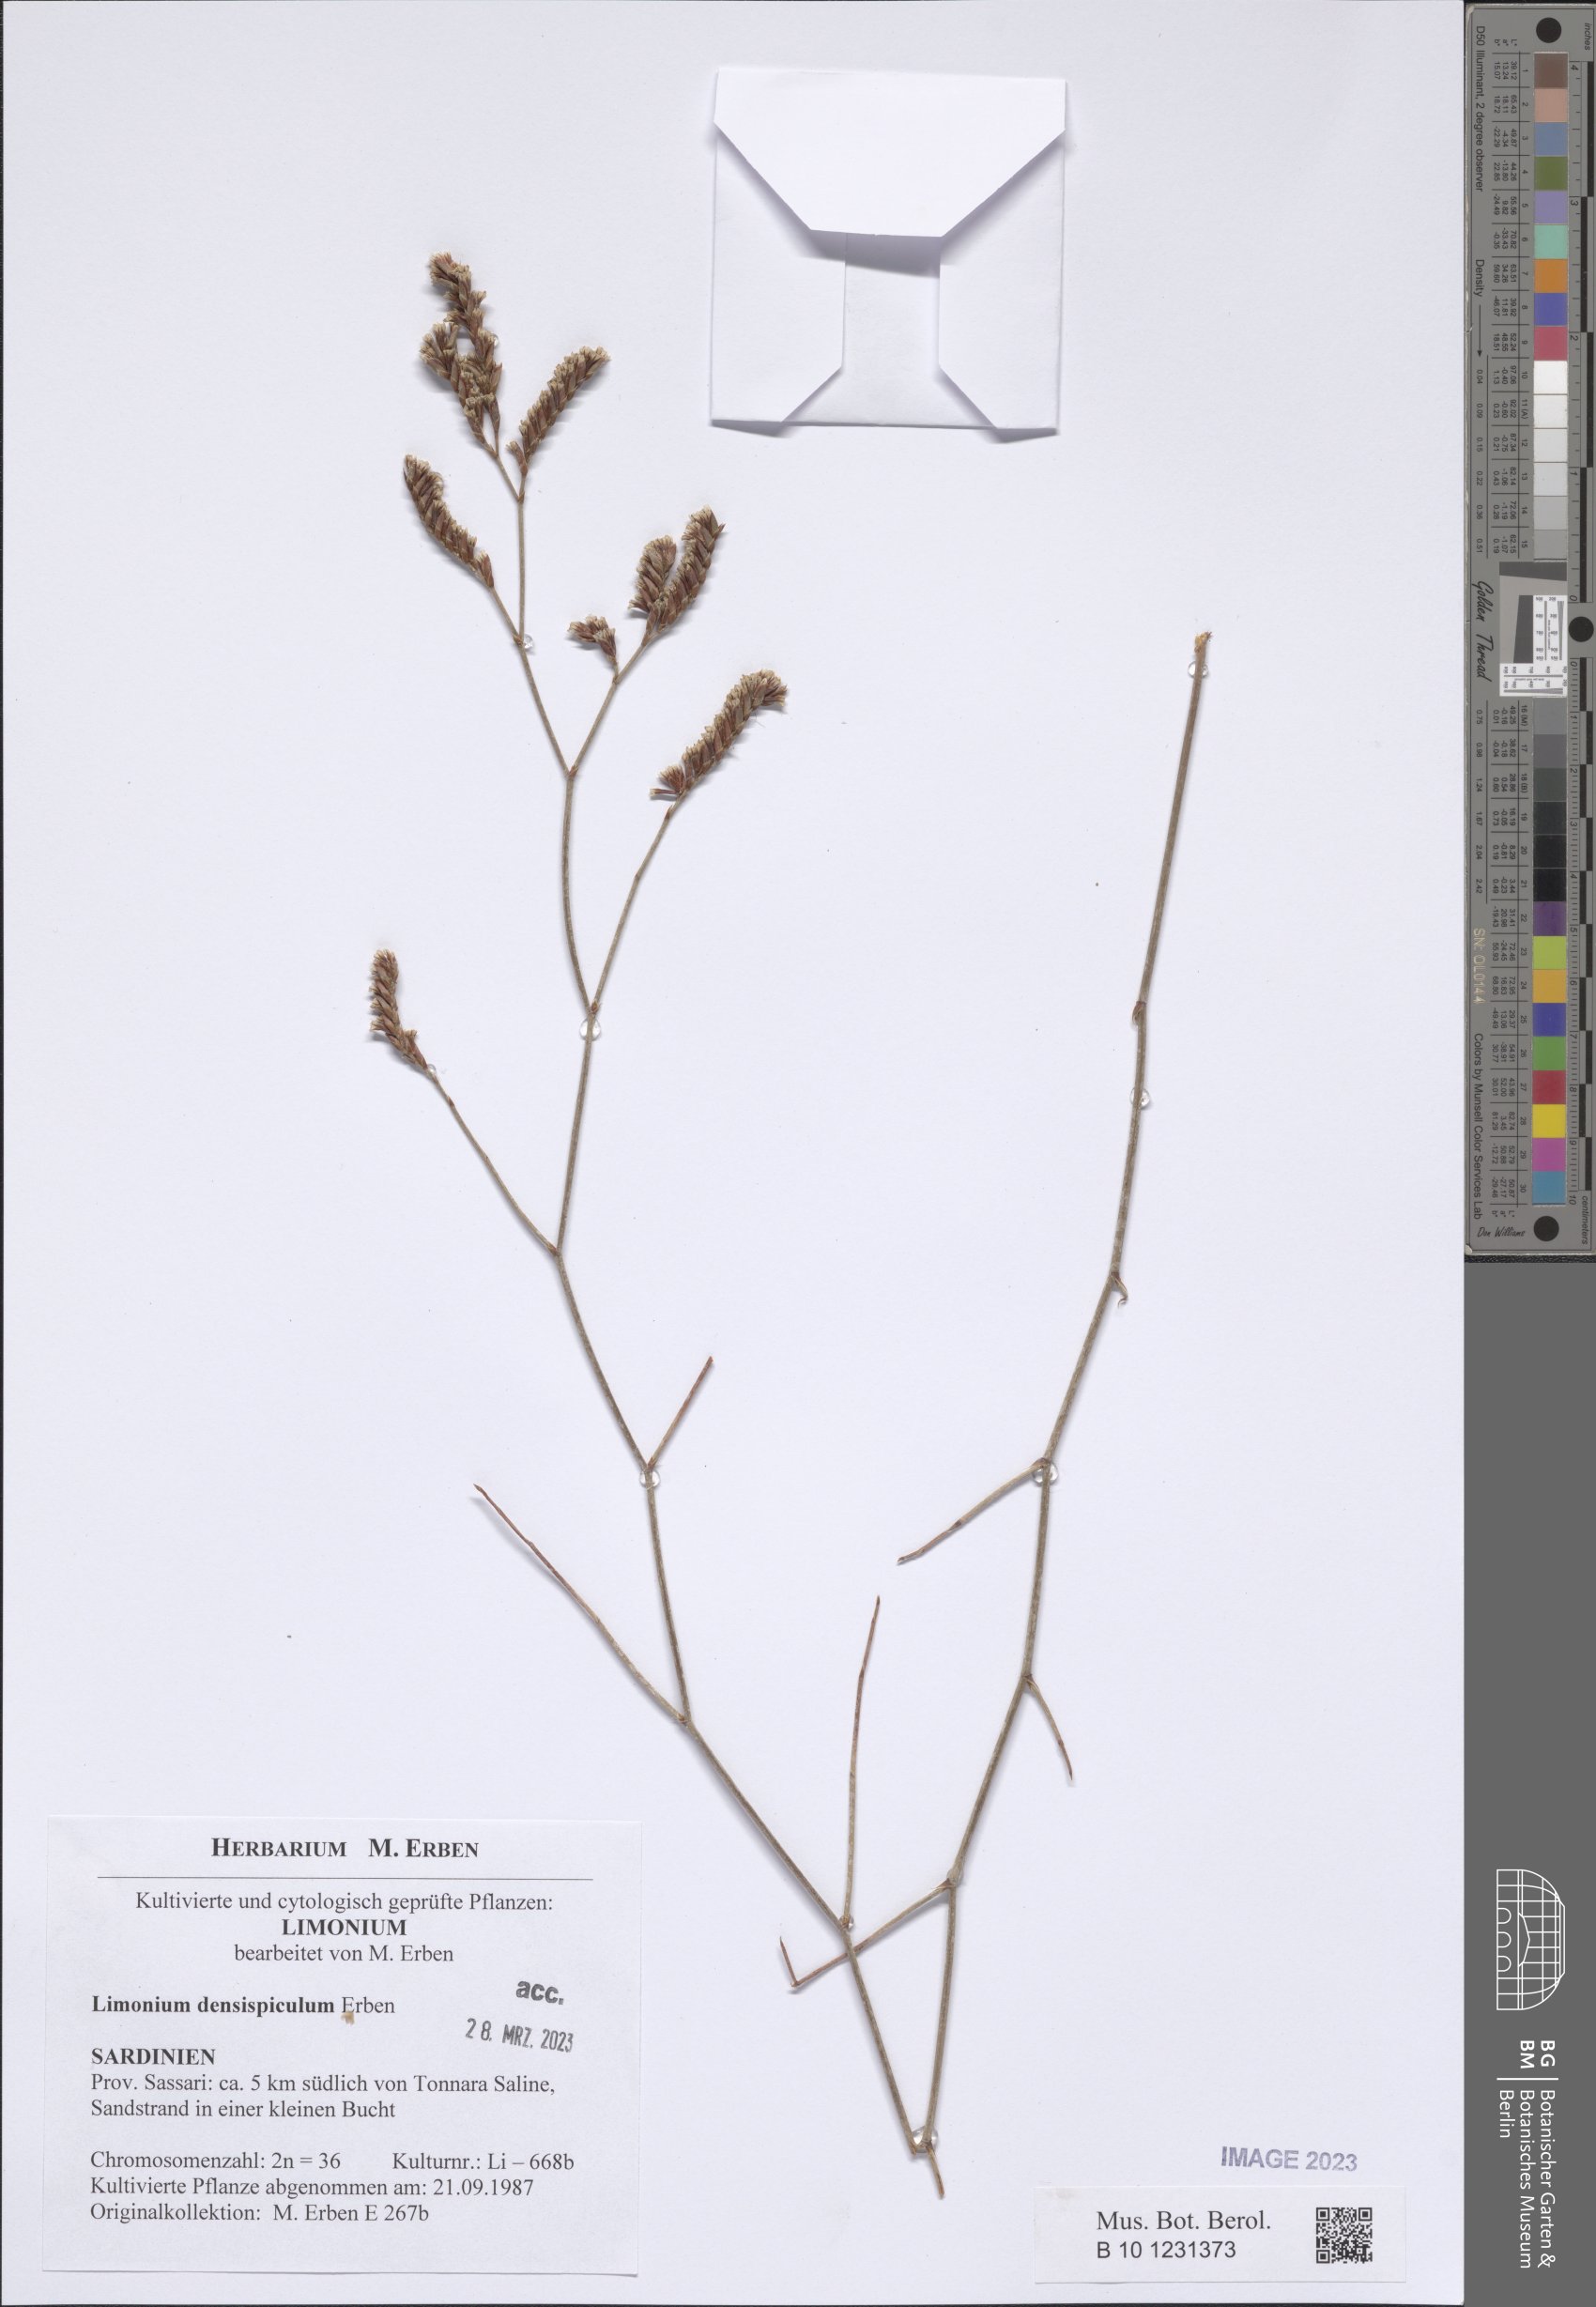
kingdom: Plantae
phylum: Tracheophyta
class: Magnoliopsida
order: Caryophyllales
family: Plumbaginaceae
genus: Limonium
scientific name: Limonium
